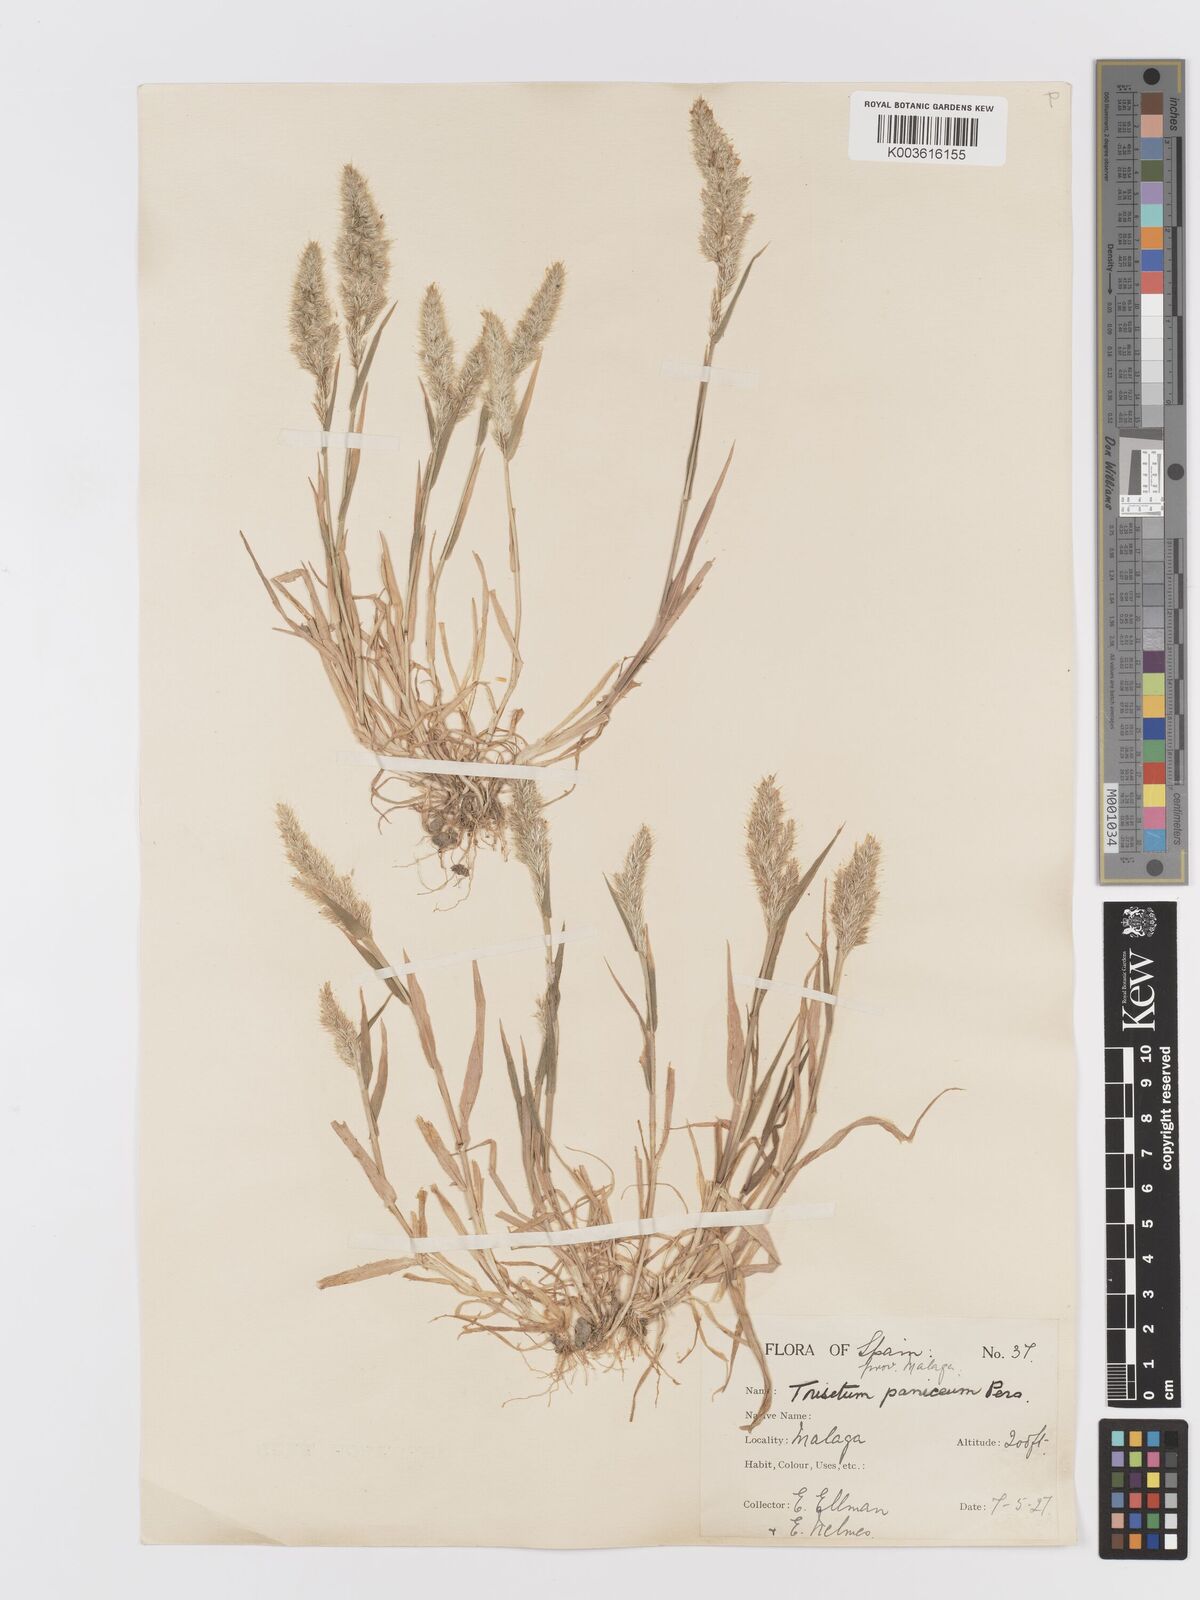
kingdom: Plantae
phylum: Tracheophyta
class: Liliopsida
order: Poales
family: Poaceae
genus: Trisetaria
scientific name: Trisetaria panicea
